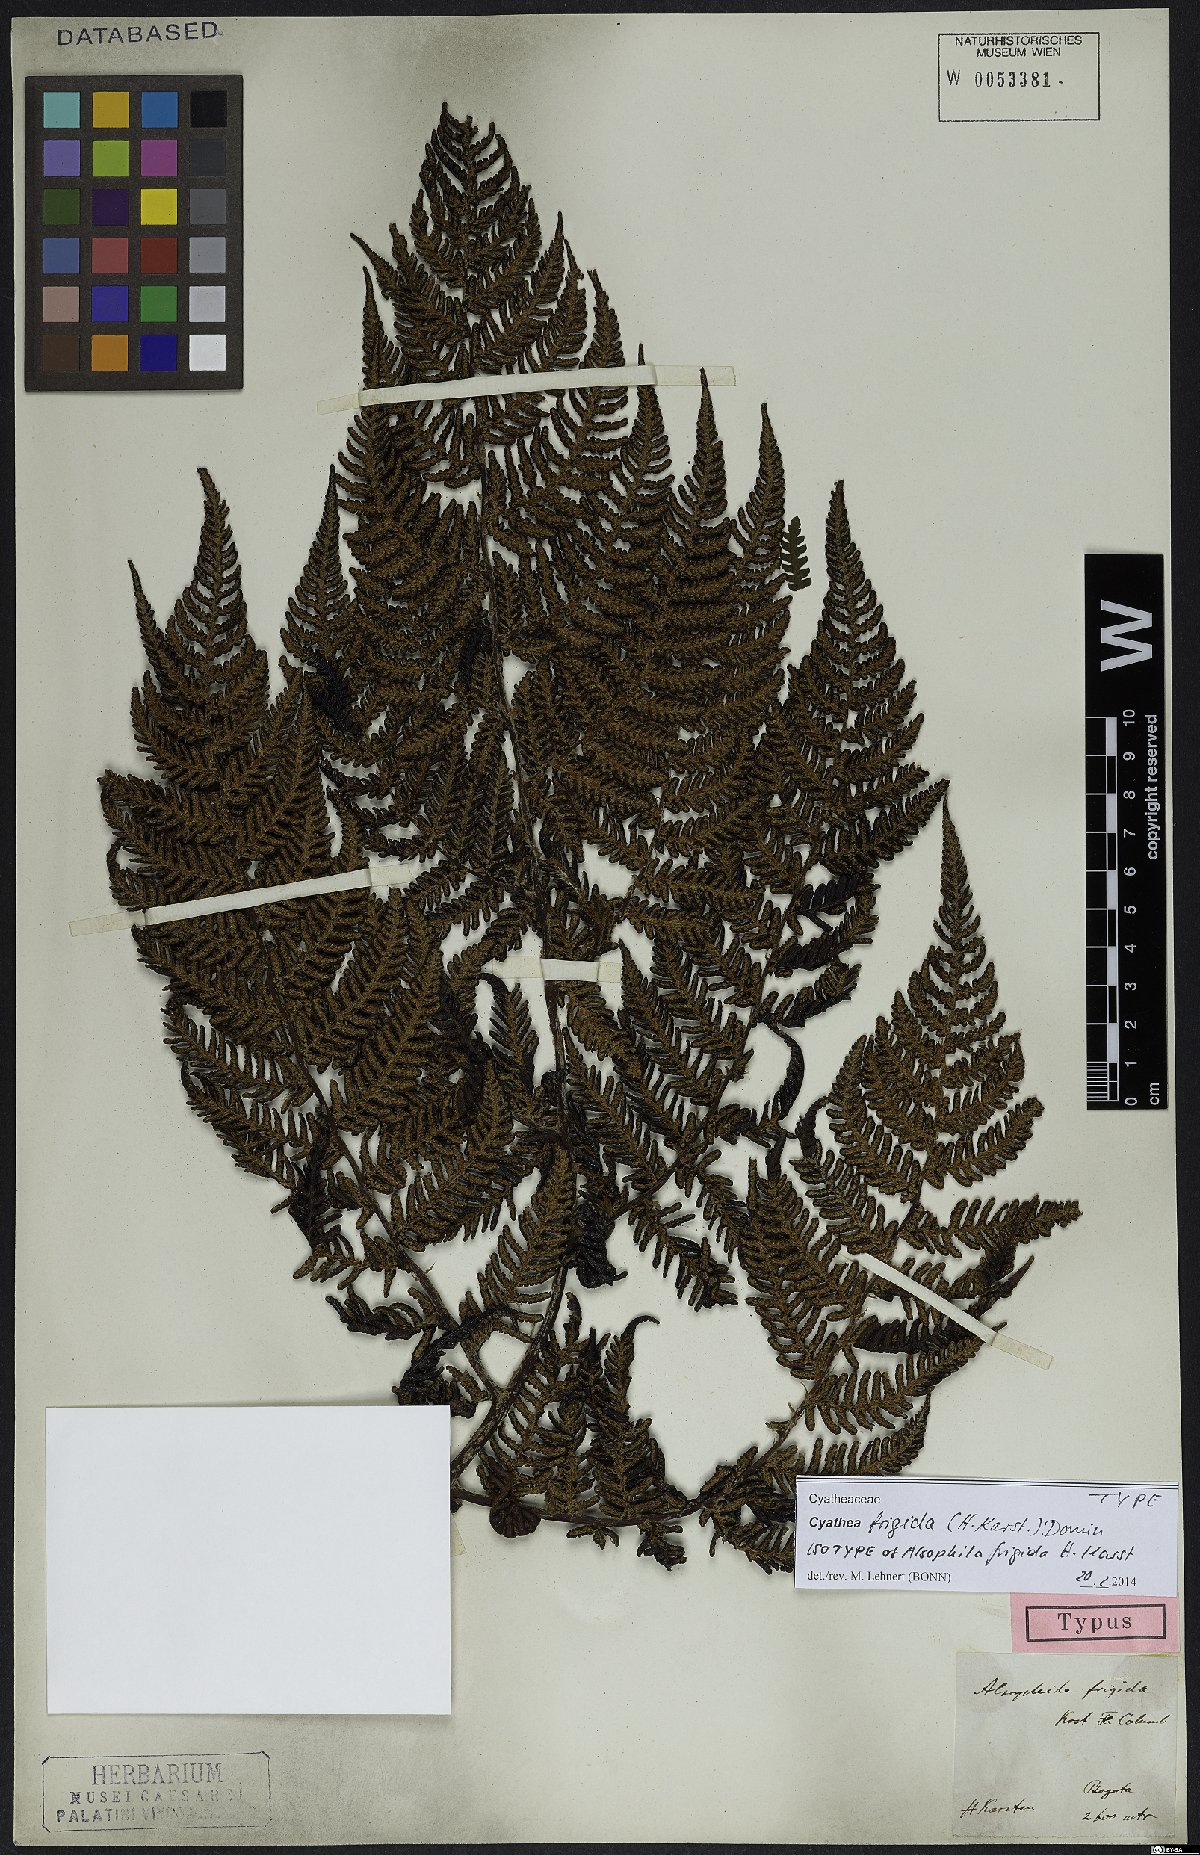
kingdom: Plantae
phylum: Tracheophyta
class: Polypodiopsida
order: Cyatheales
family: Cyatheaceae
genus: Cyathea
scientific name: Cyathea frigida
